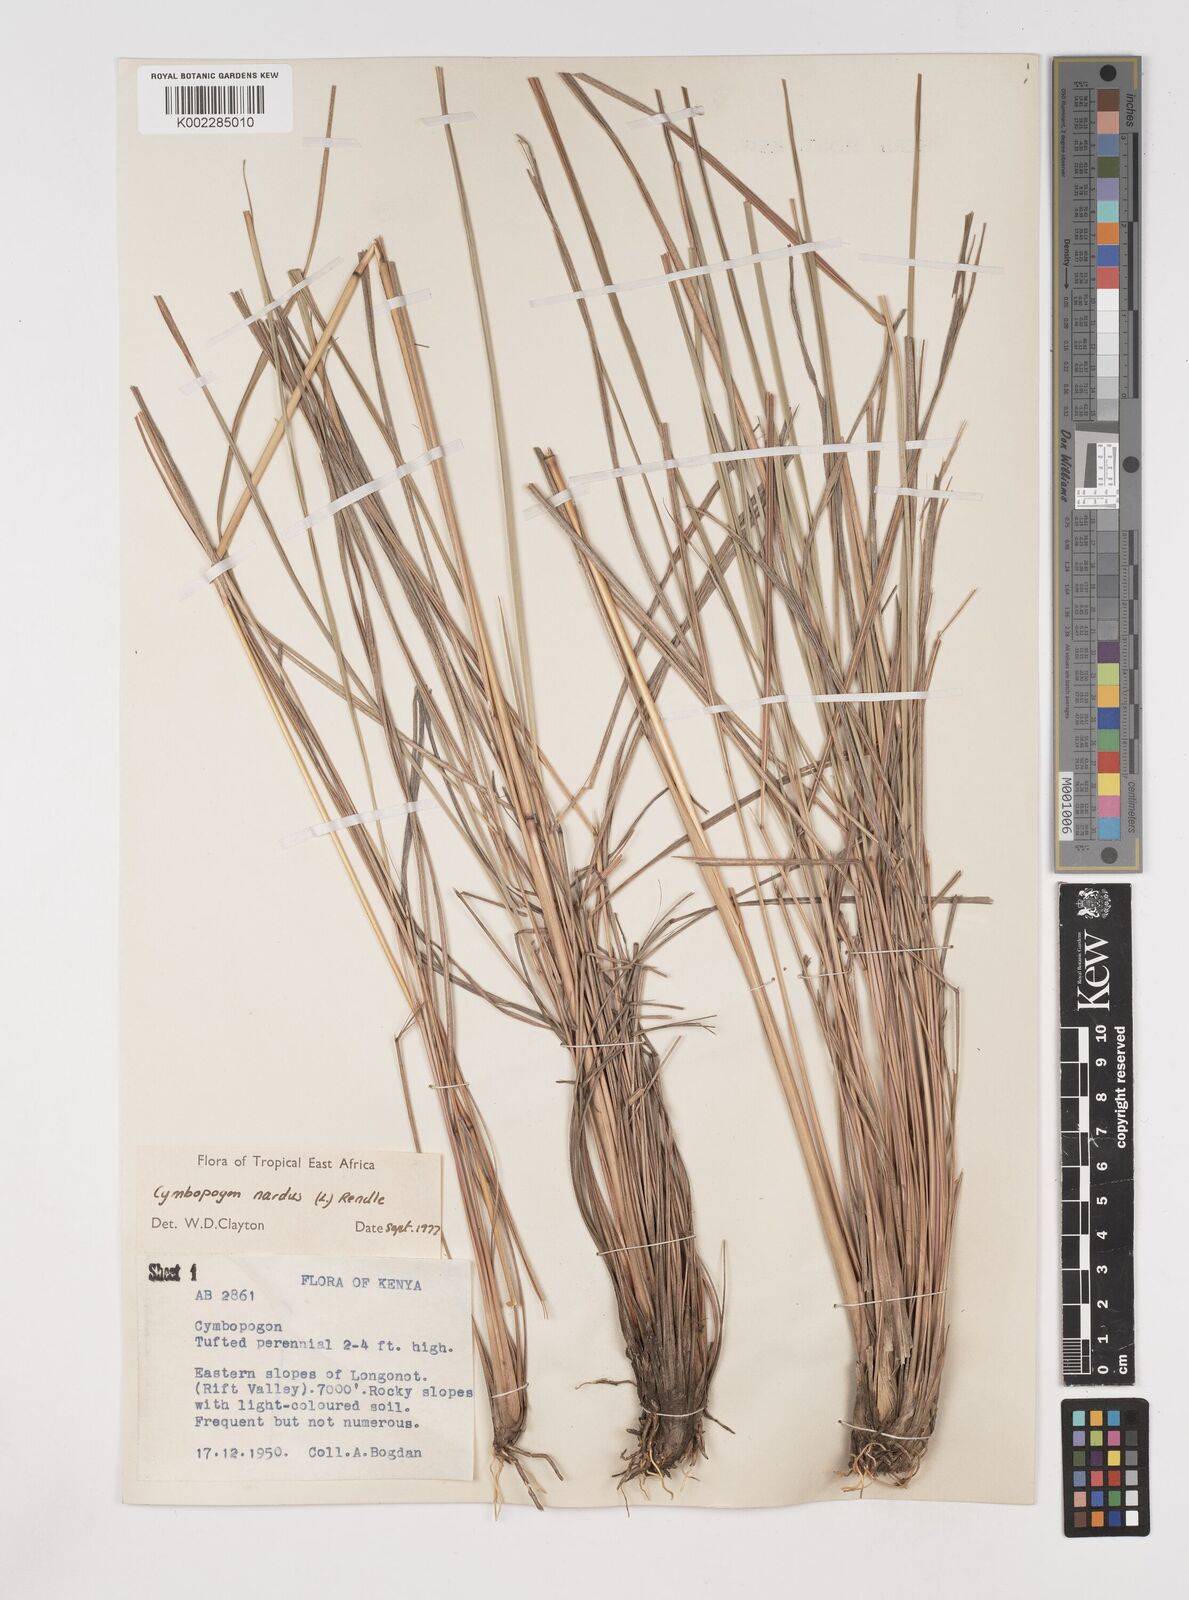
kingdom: Plantae
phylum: Tracheophyta
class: Liliopsida
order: Poales
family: Poaceae
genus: Cymbopogon
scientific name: Cymbopogon nardus
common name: Giant turpentine grass
